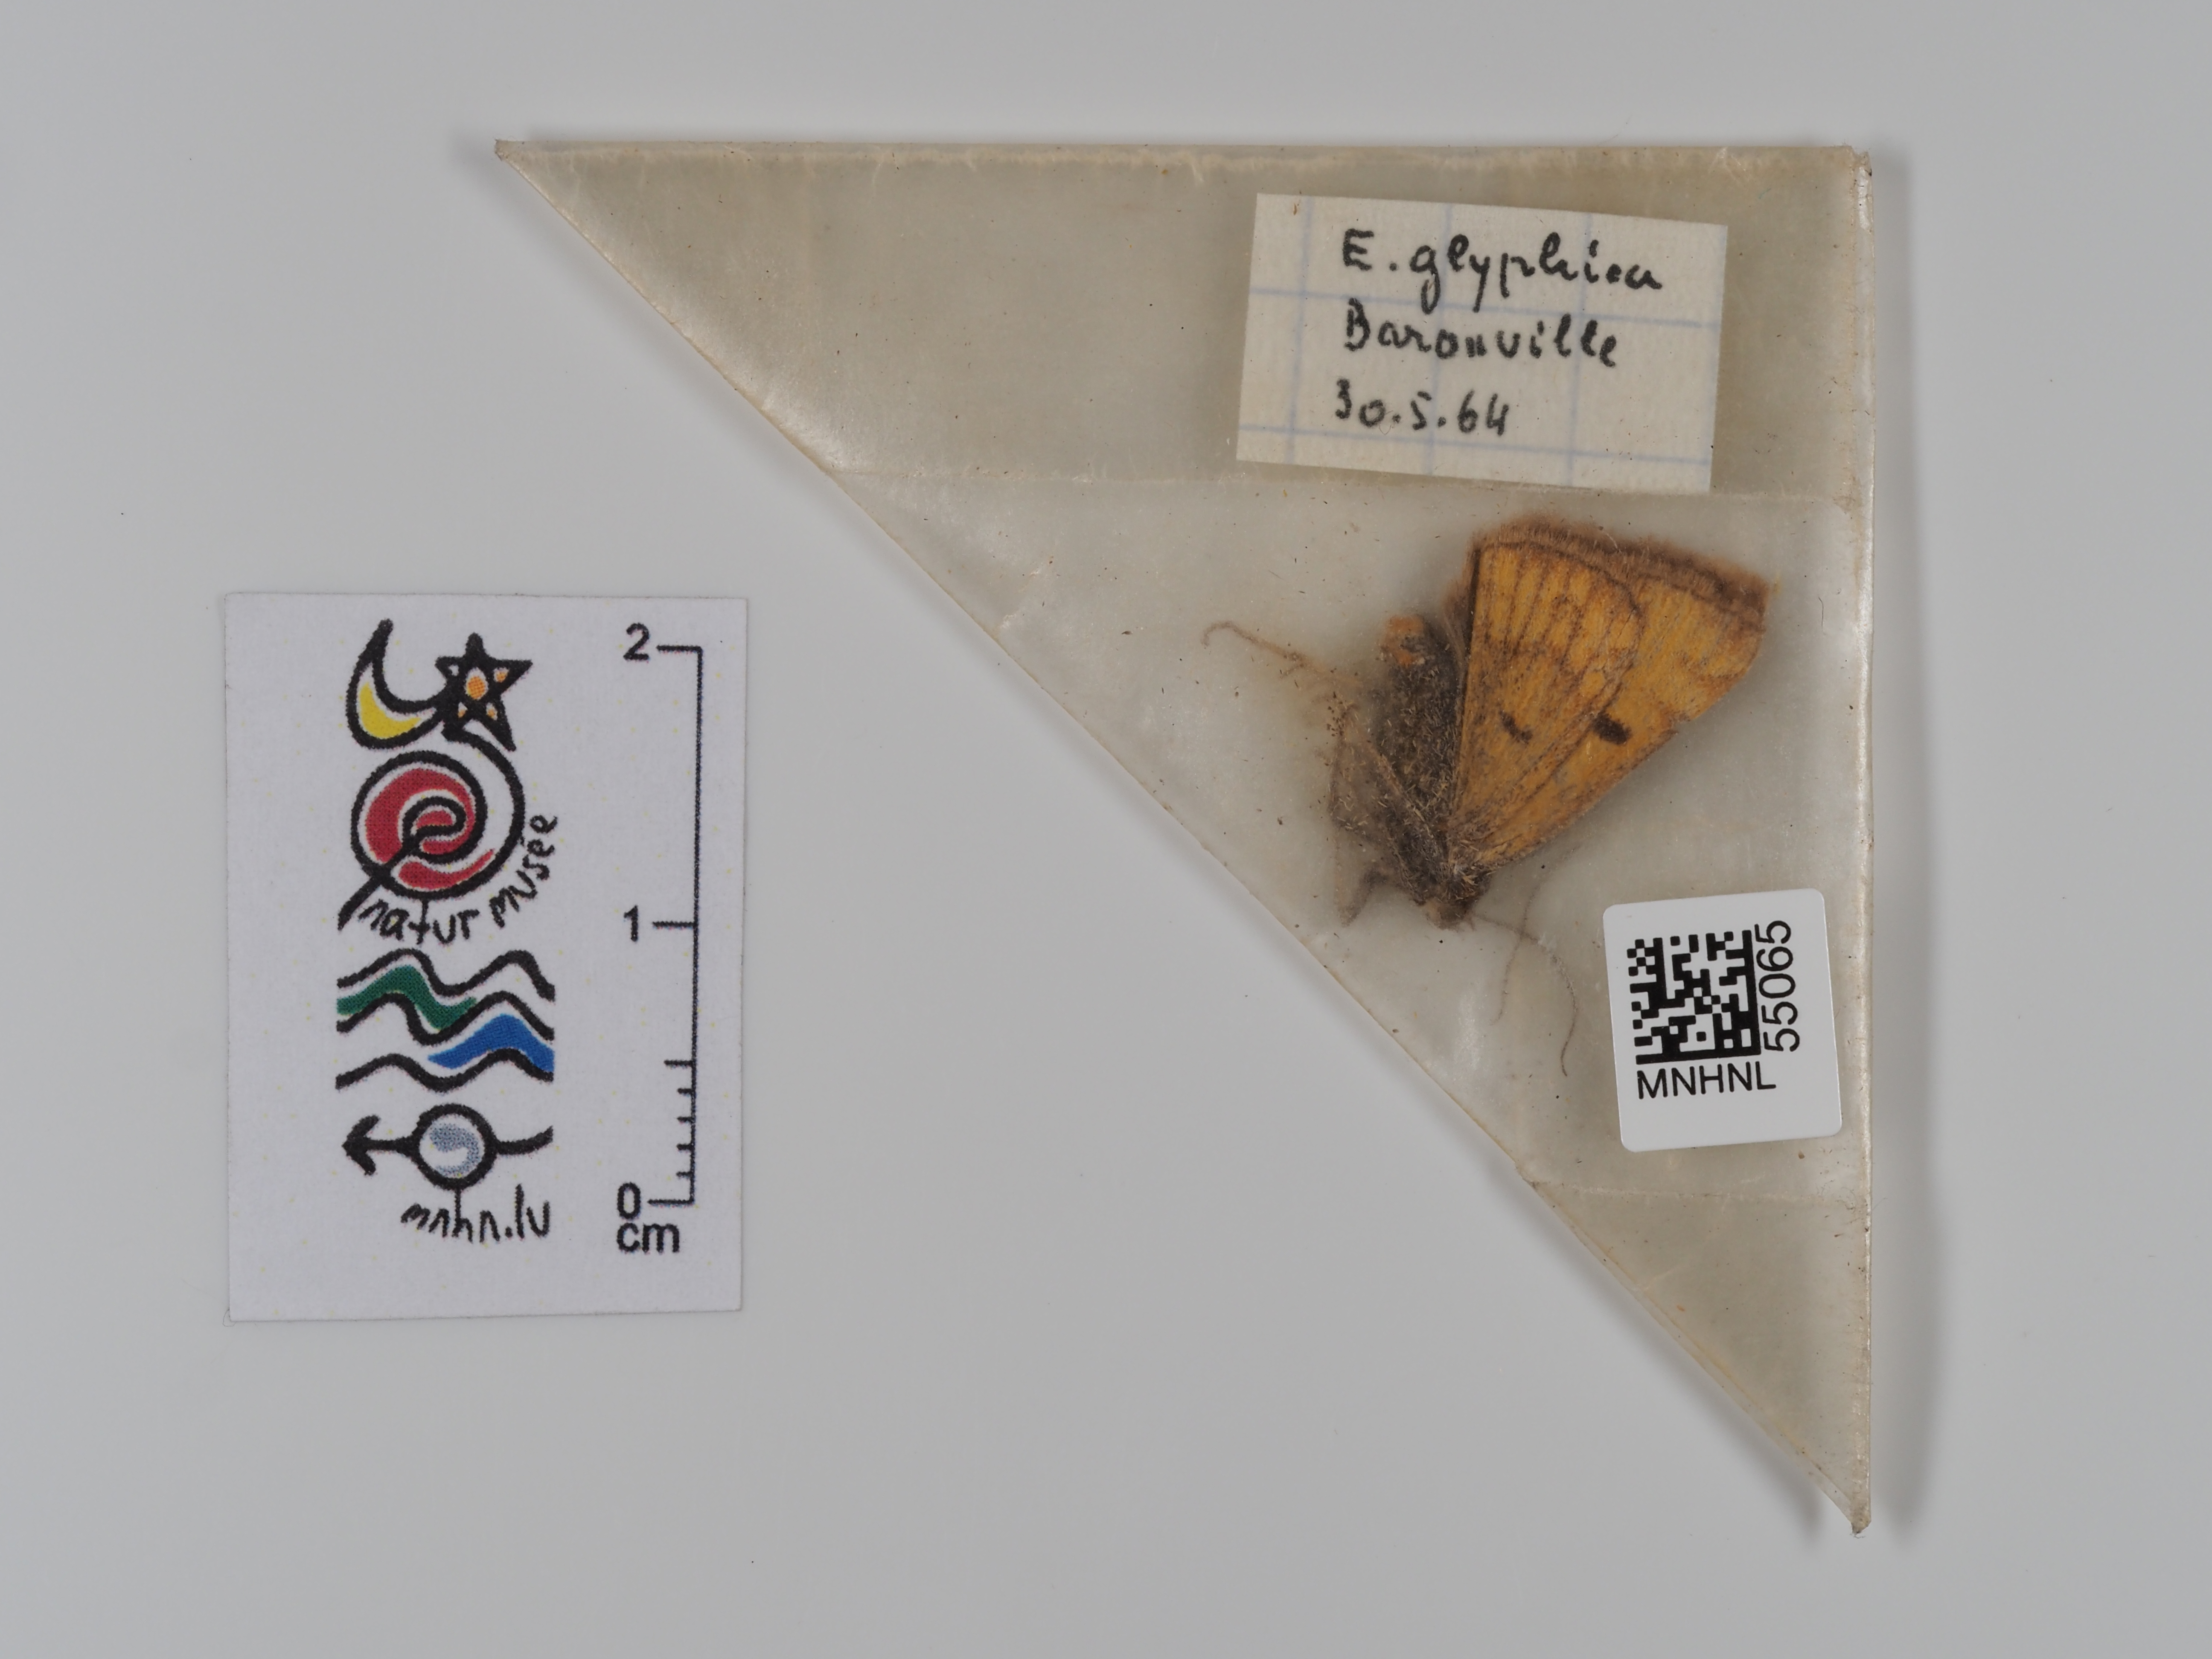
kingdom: Animalia
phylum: Arthropoda
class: Insecta
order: Lepidoptera
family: Erebidae
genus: Euclidia
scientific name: Euclidia glyphica
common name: Burnet companion
